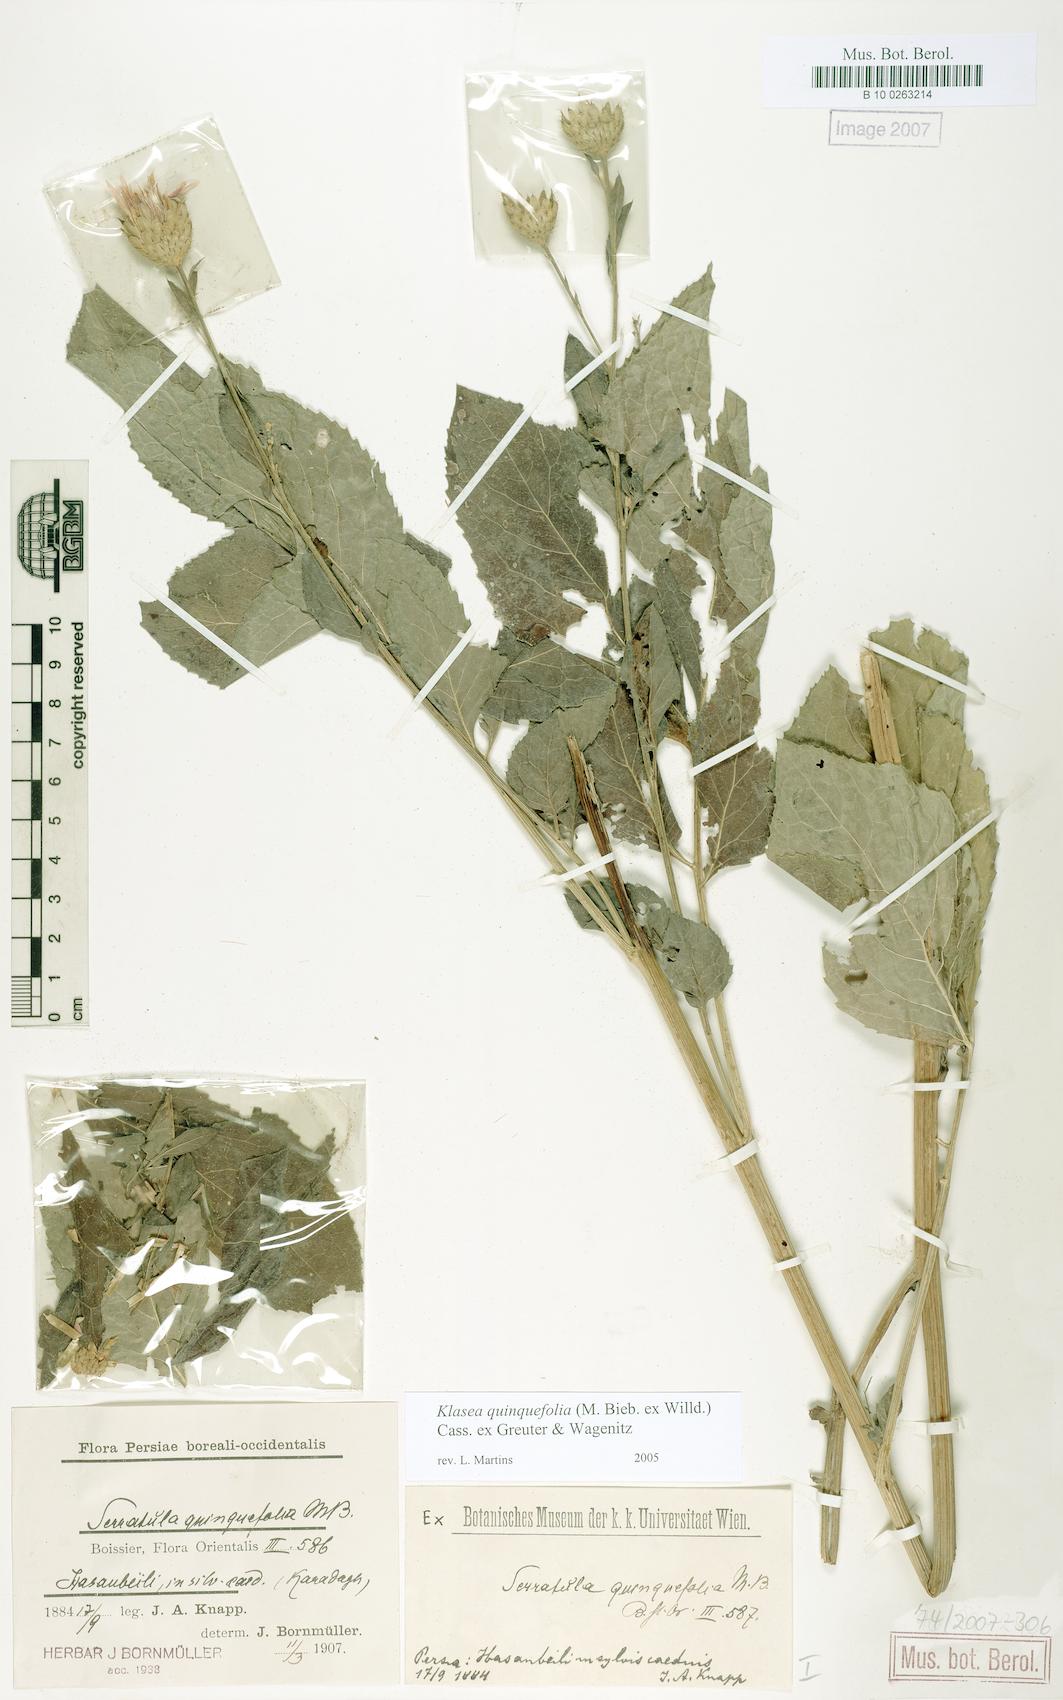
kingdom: Plantae
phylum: Tracheophyta
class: Magnoliopsida
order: Asterales
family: Asteraceae
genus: Klasea
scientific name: Klasea quinquefolia
